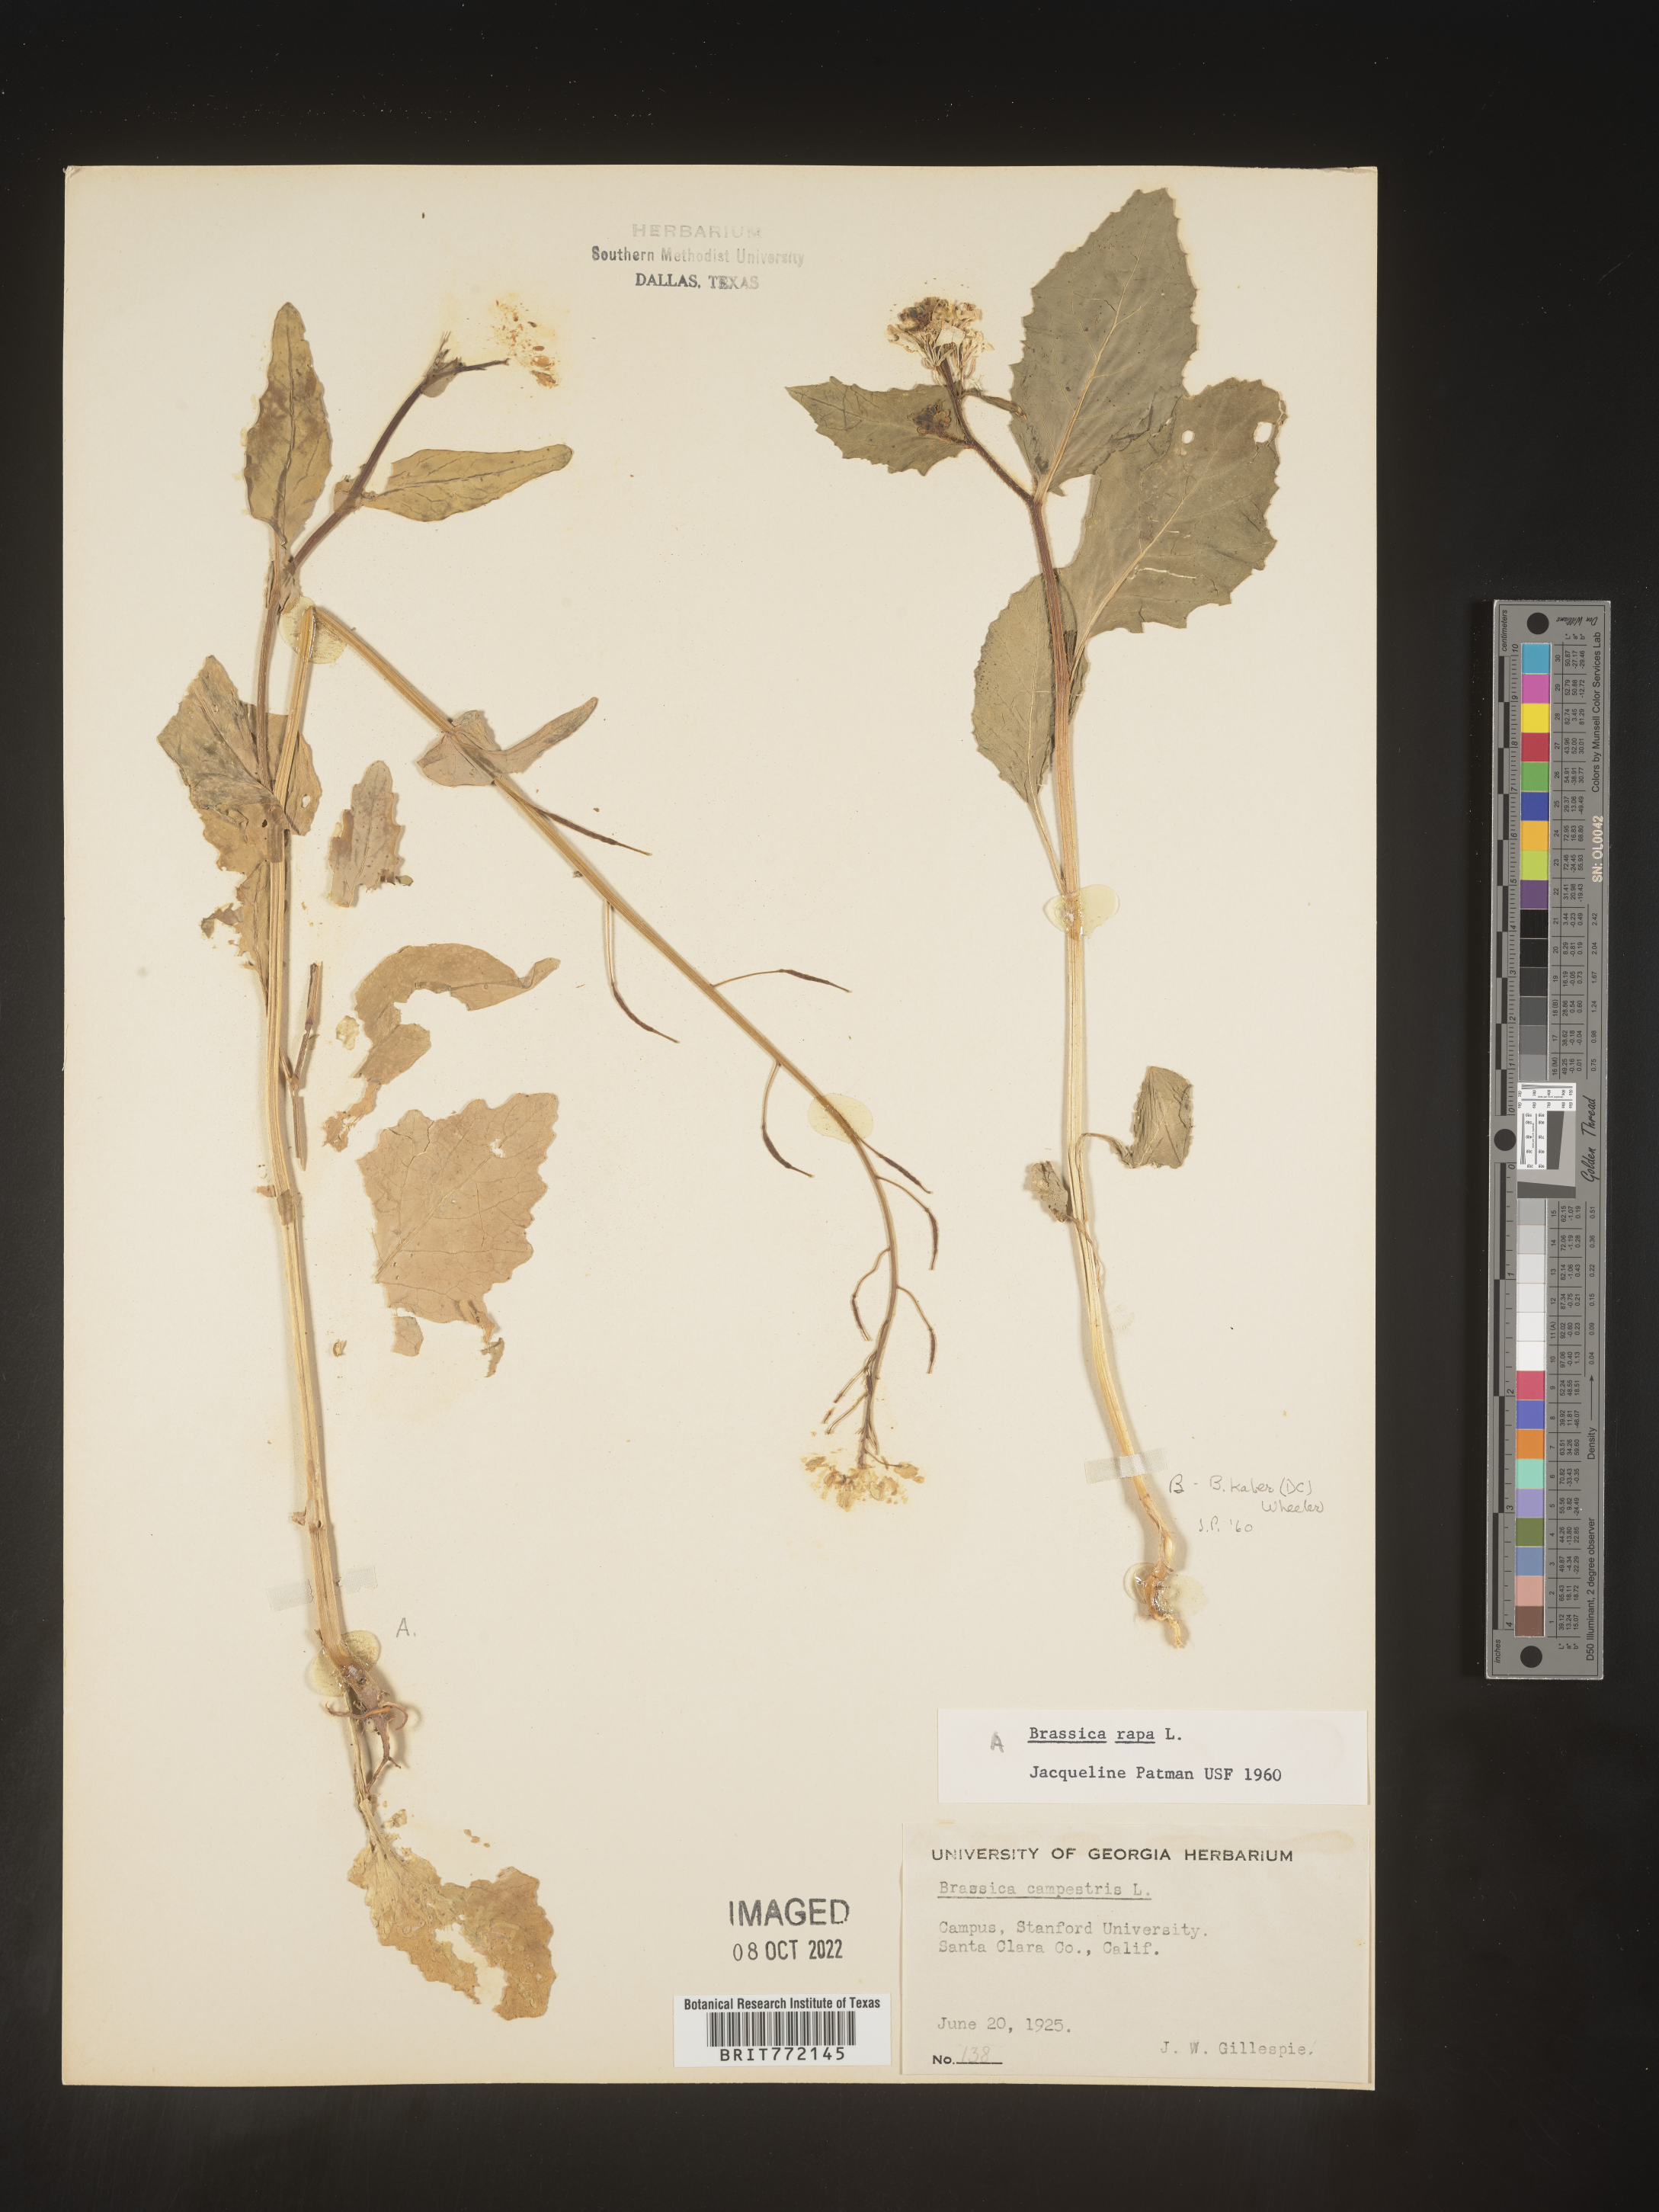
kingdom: Plantae
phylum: Tracheophyta
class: Magnoliopsida
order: Brassicales
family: Brassicaceae
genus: Brassica
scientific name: Brassica rapa
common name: Field mustard
